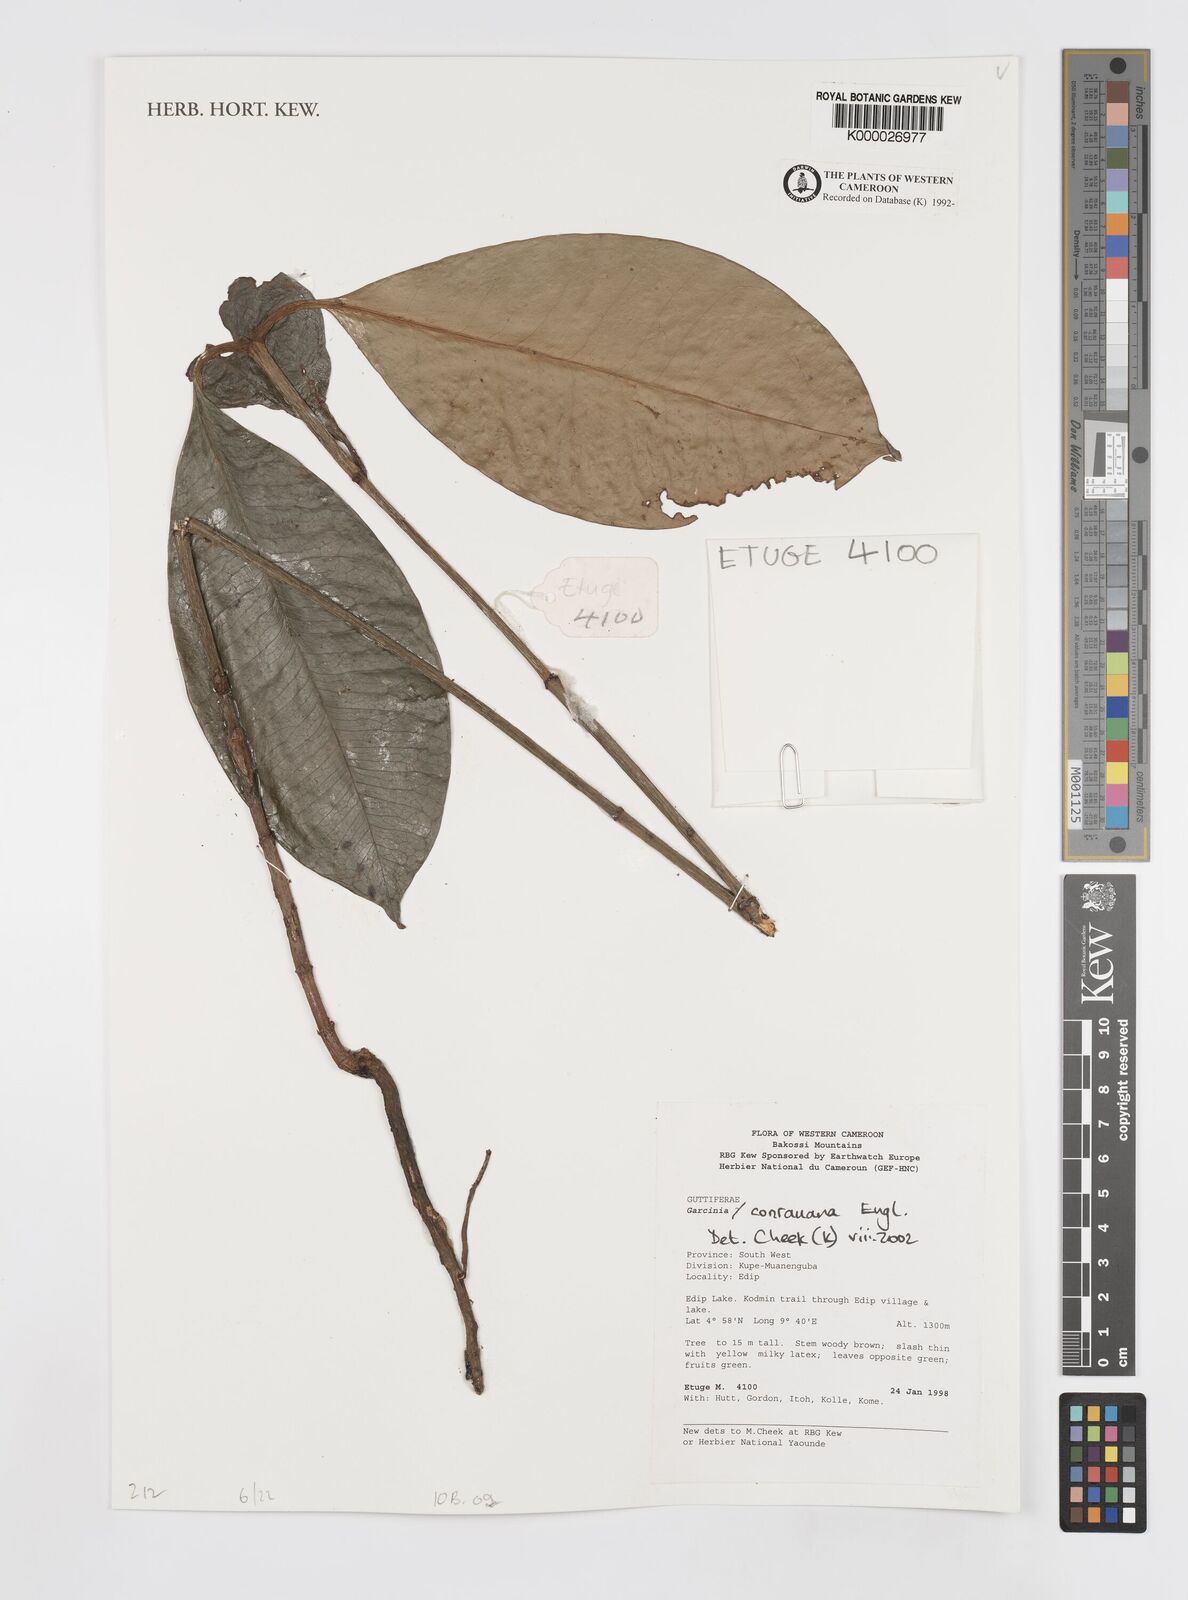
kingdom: Plantae
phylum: Tracheophyta
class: Magnoliopsida
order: Malpighiales
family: Clusiaceae
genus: Garcinia
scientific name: Garcinia conrauana
